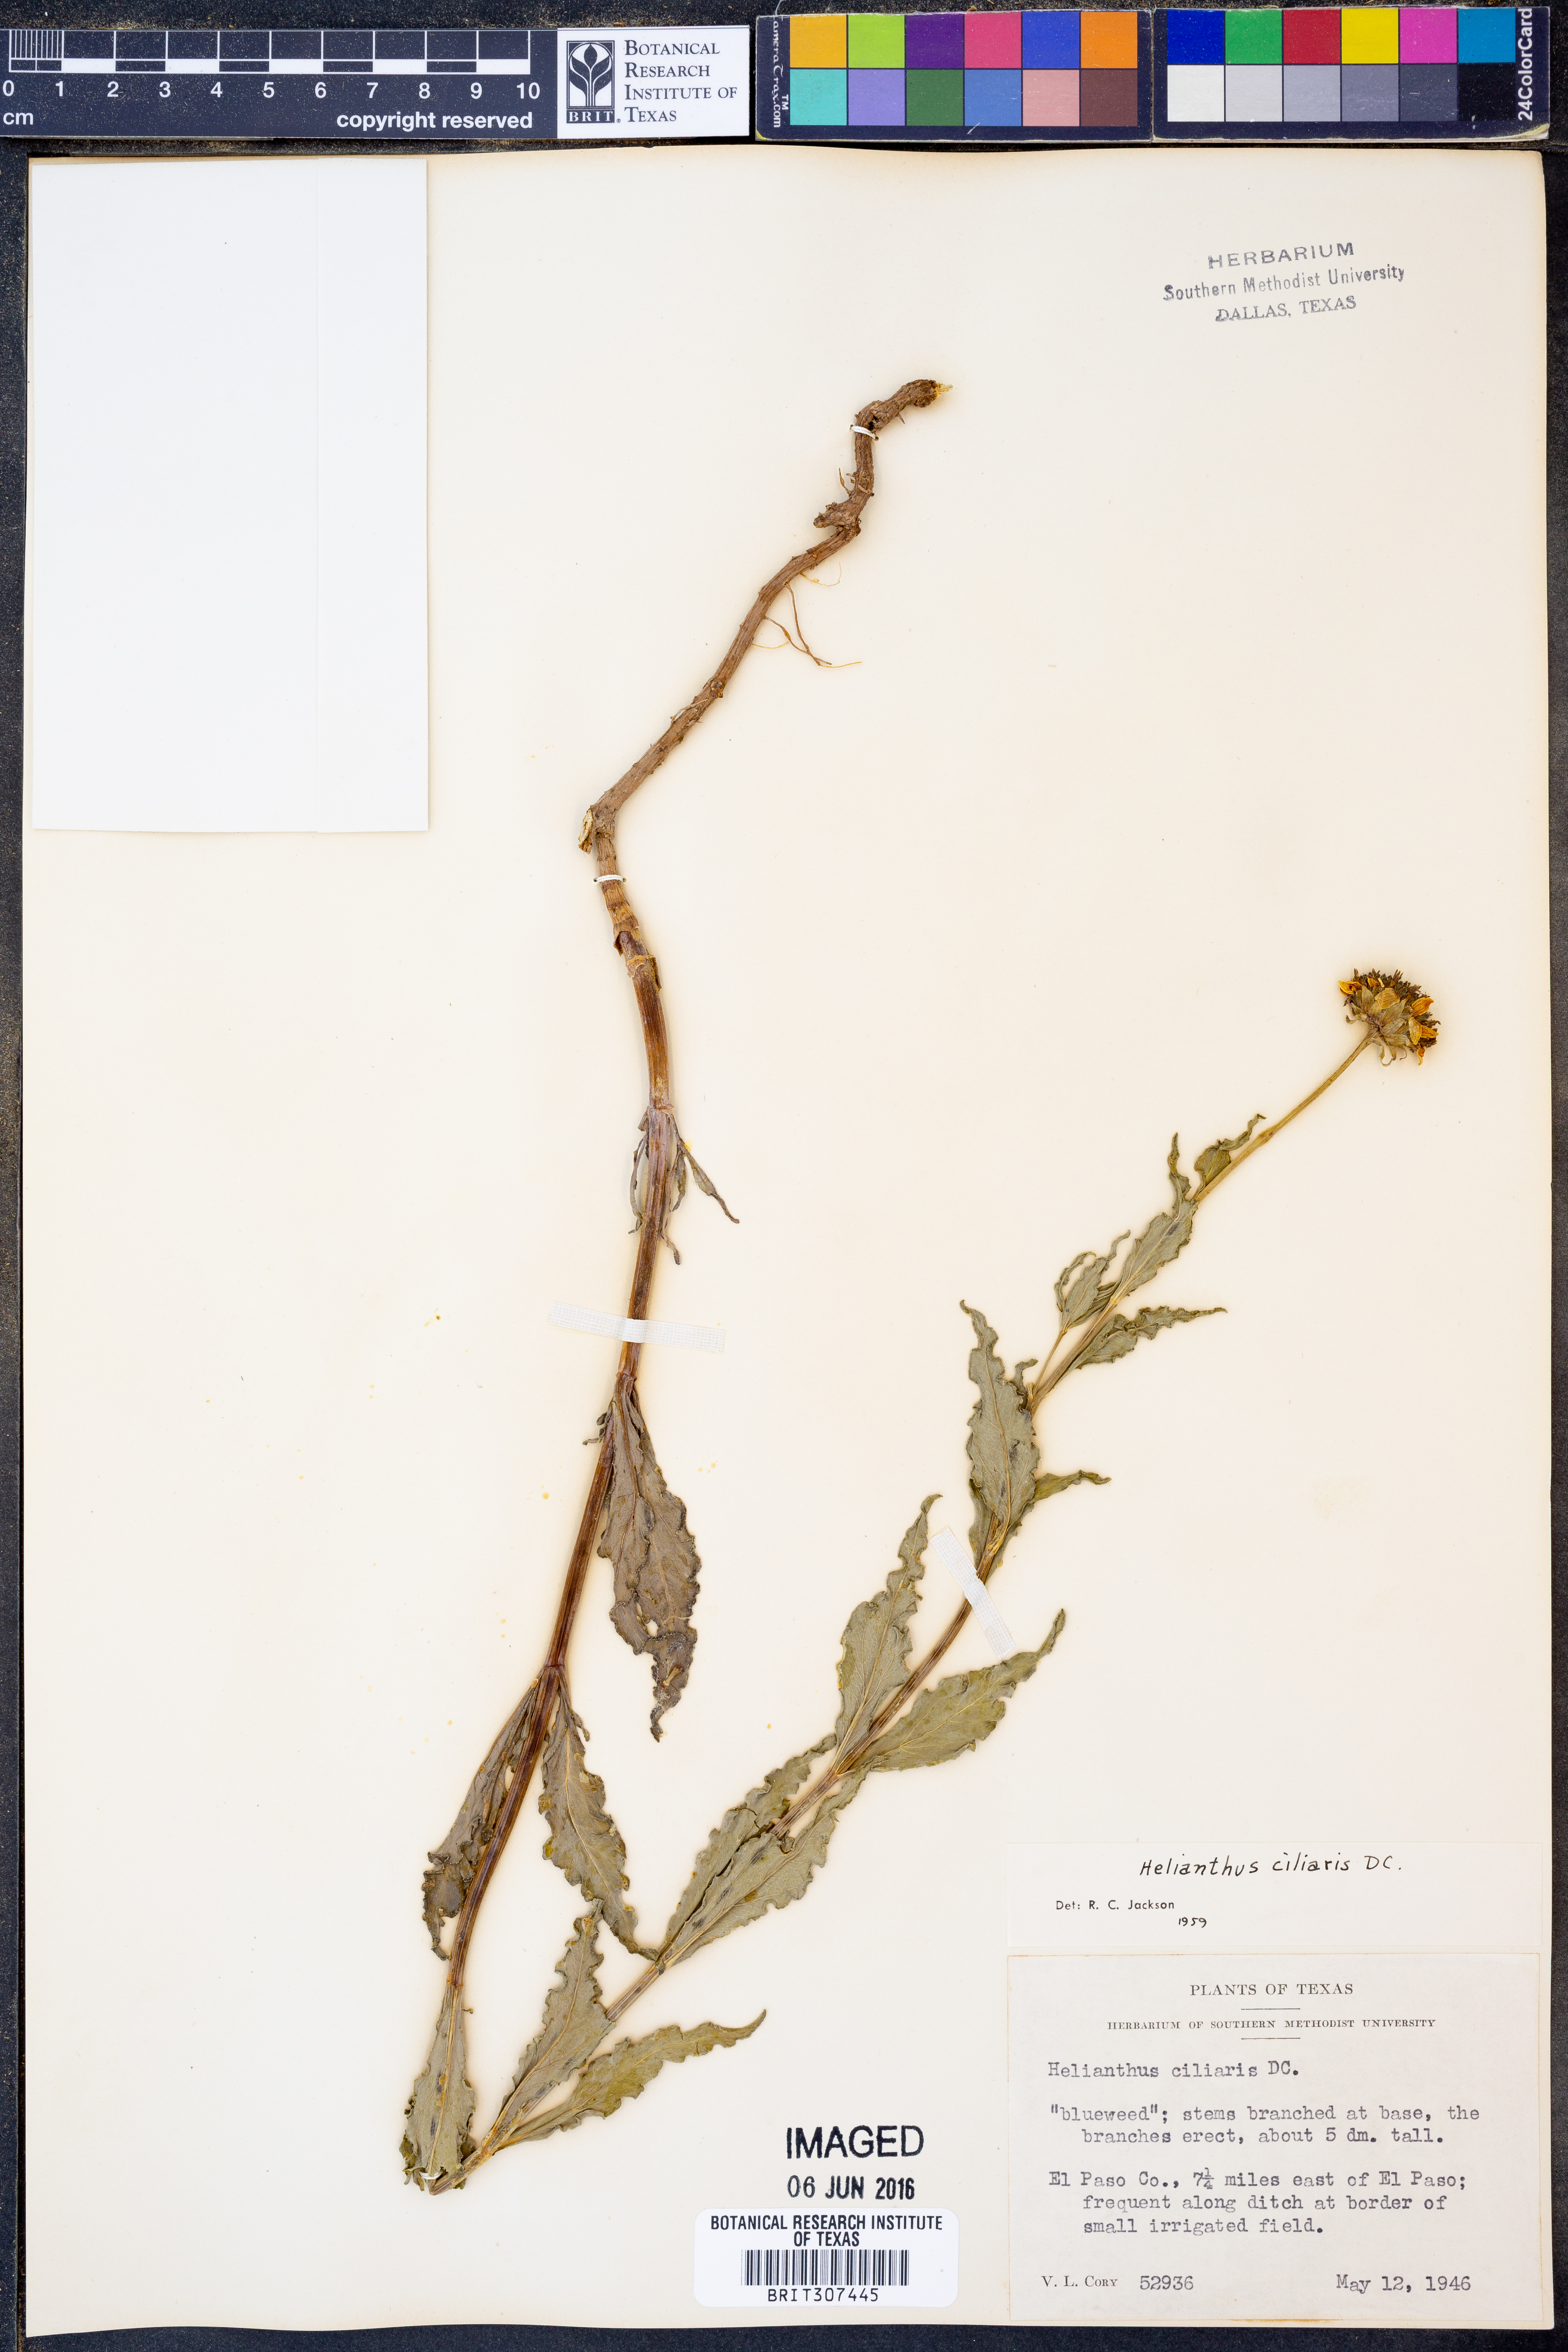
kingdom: Plantae
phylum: Tracheophyta
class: Magnoliopsida
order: Asterales
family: Asteraceae
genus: Helianthus
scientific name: Helianthus ciliaris
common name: Texas blueweed
